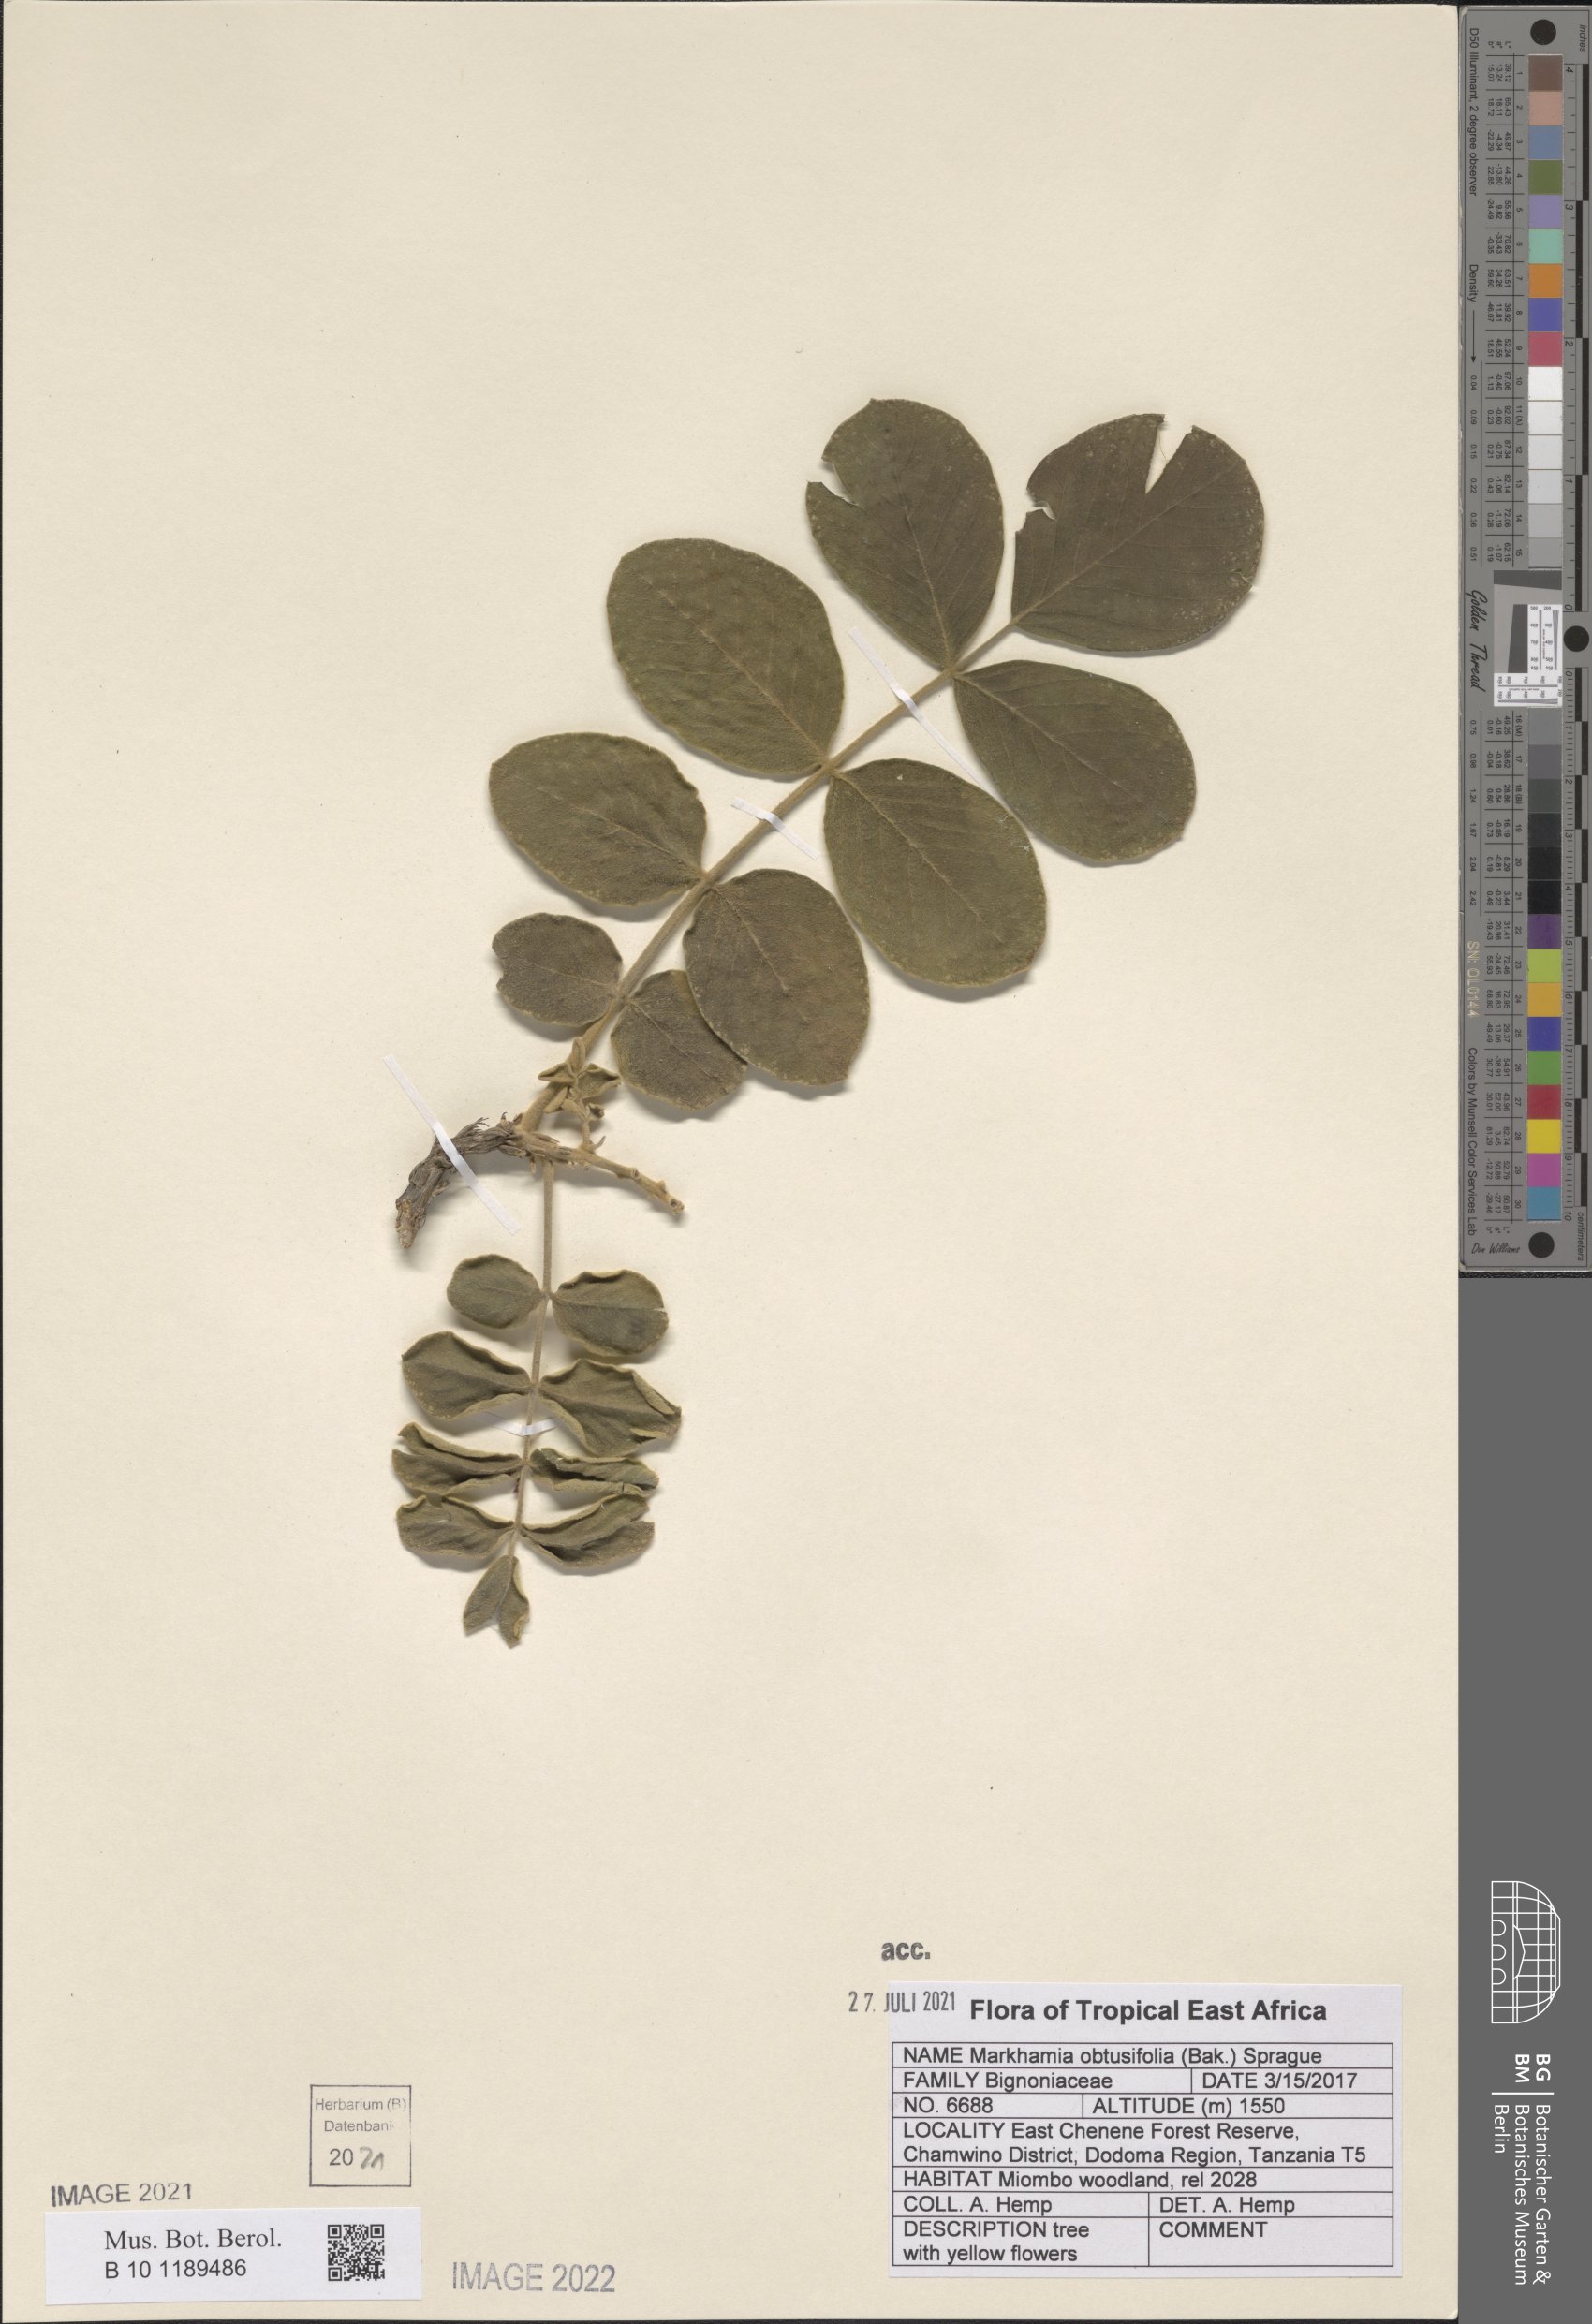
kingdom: Plantae
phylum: Tracheophyta
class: Magnoliopsida
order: Lamiales
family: Bignoniaceae
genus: Markhamia
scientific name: Markhamia obtusifolia
